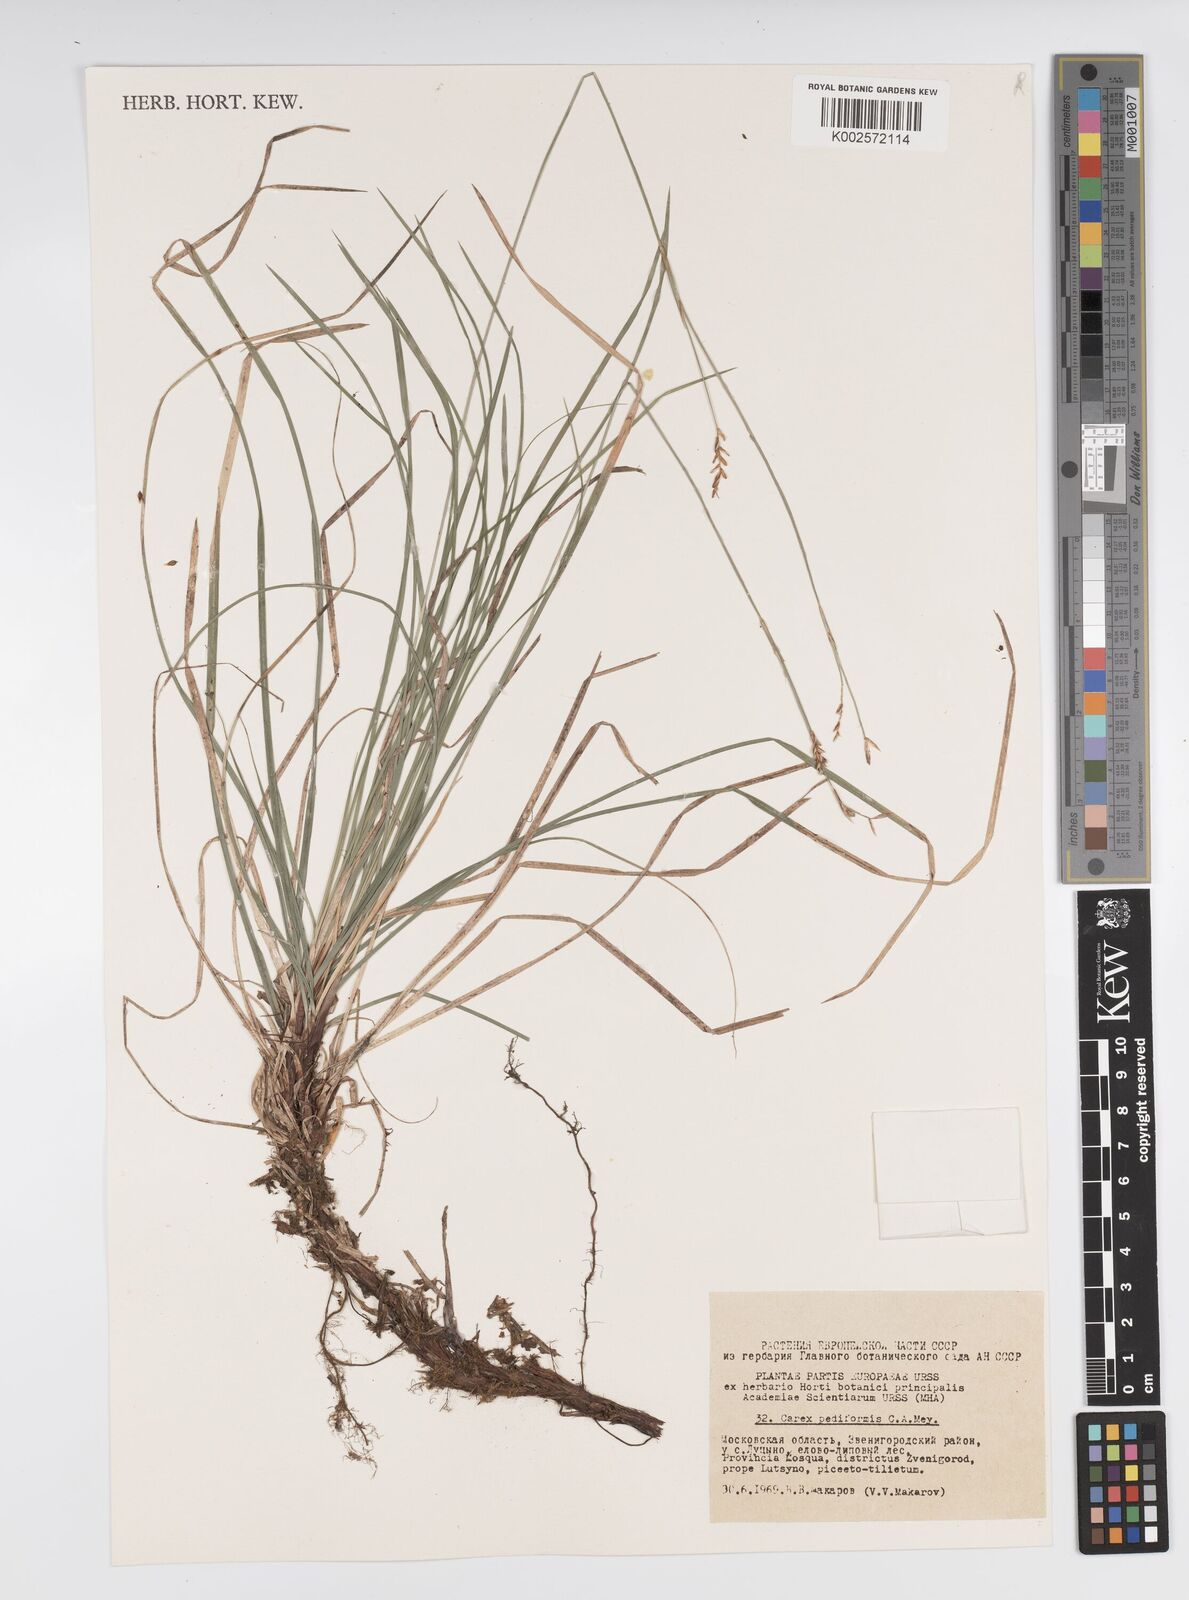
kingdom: Plantae
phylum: Tracheophyta
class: Liliopsida
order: Poales
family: Cyperaceae
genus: Carex
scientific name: Carex pediformis
